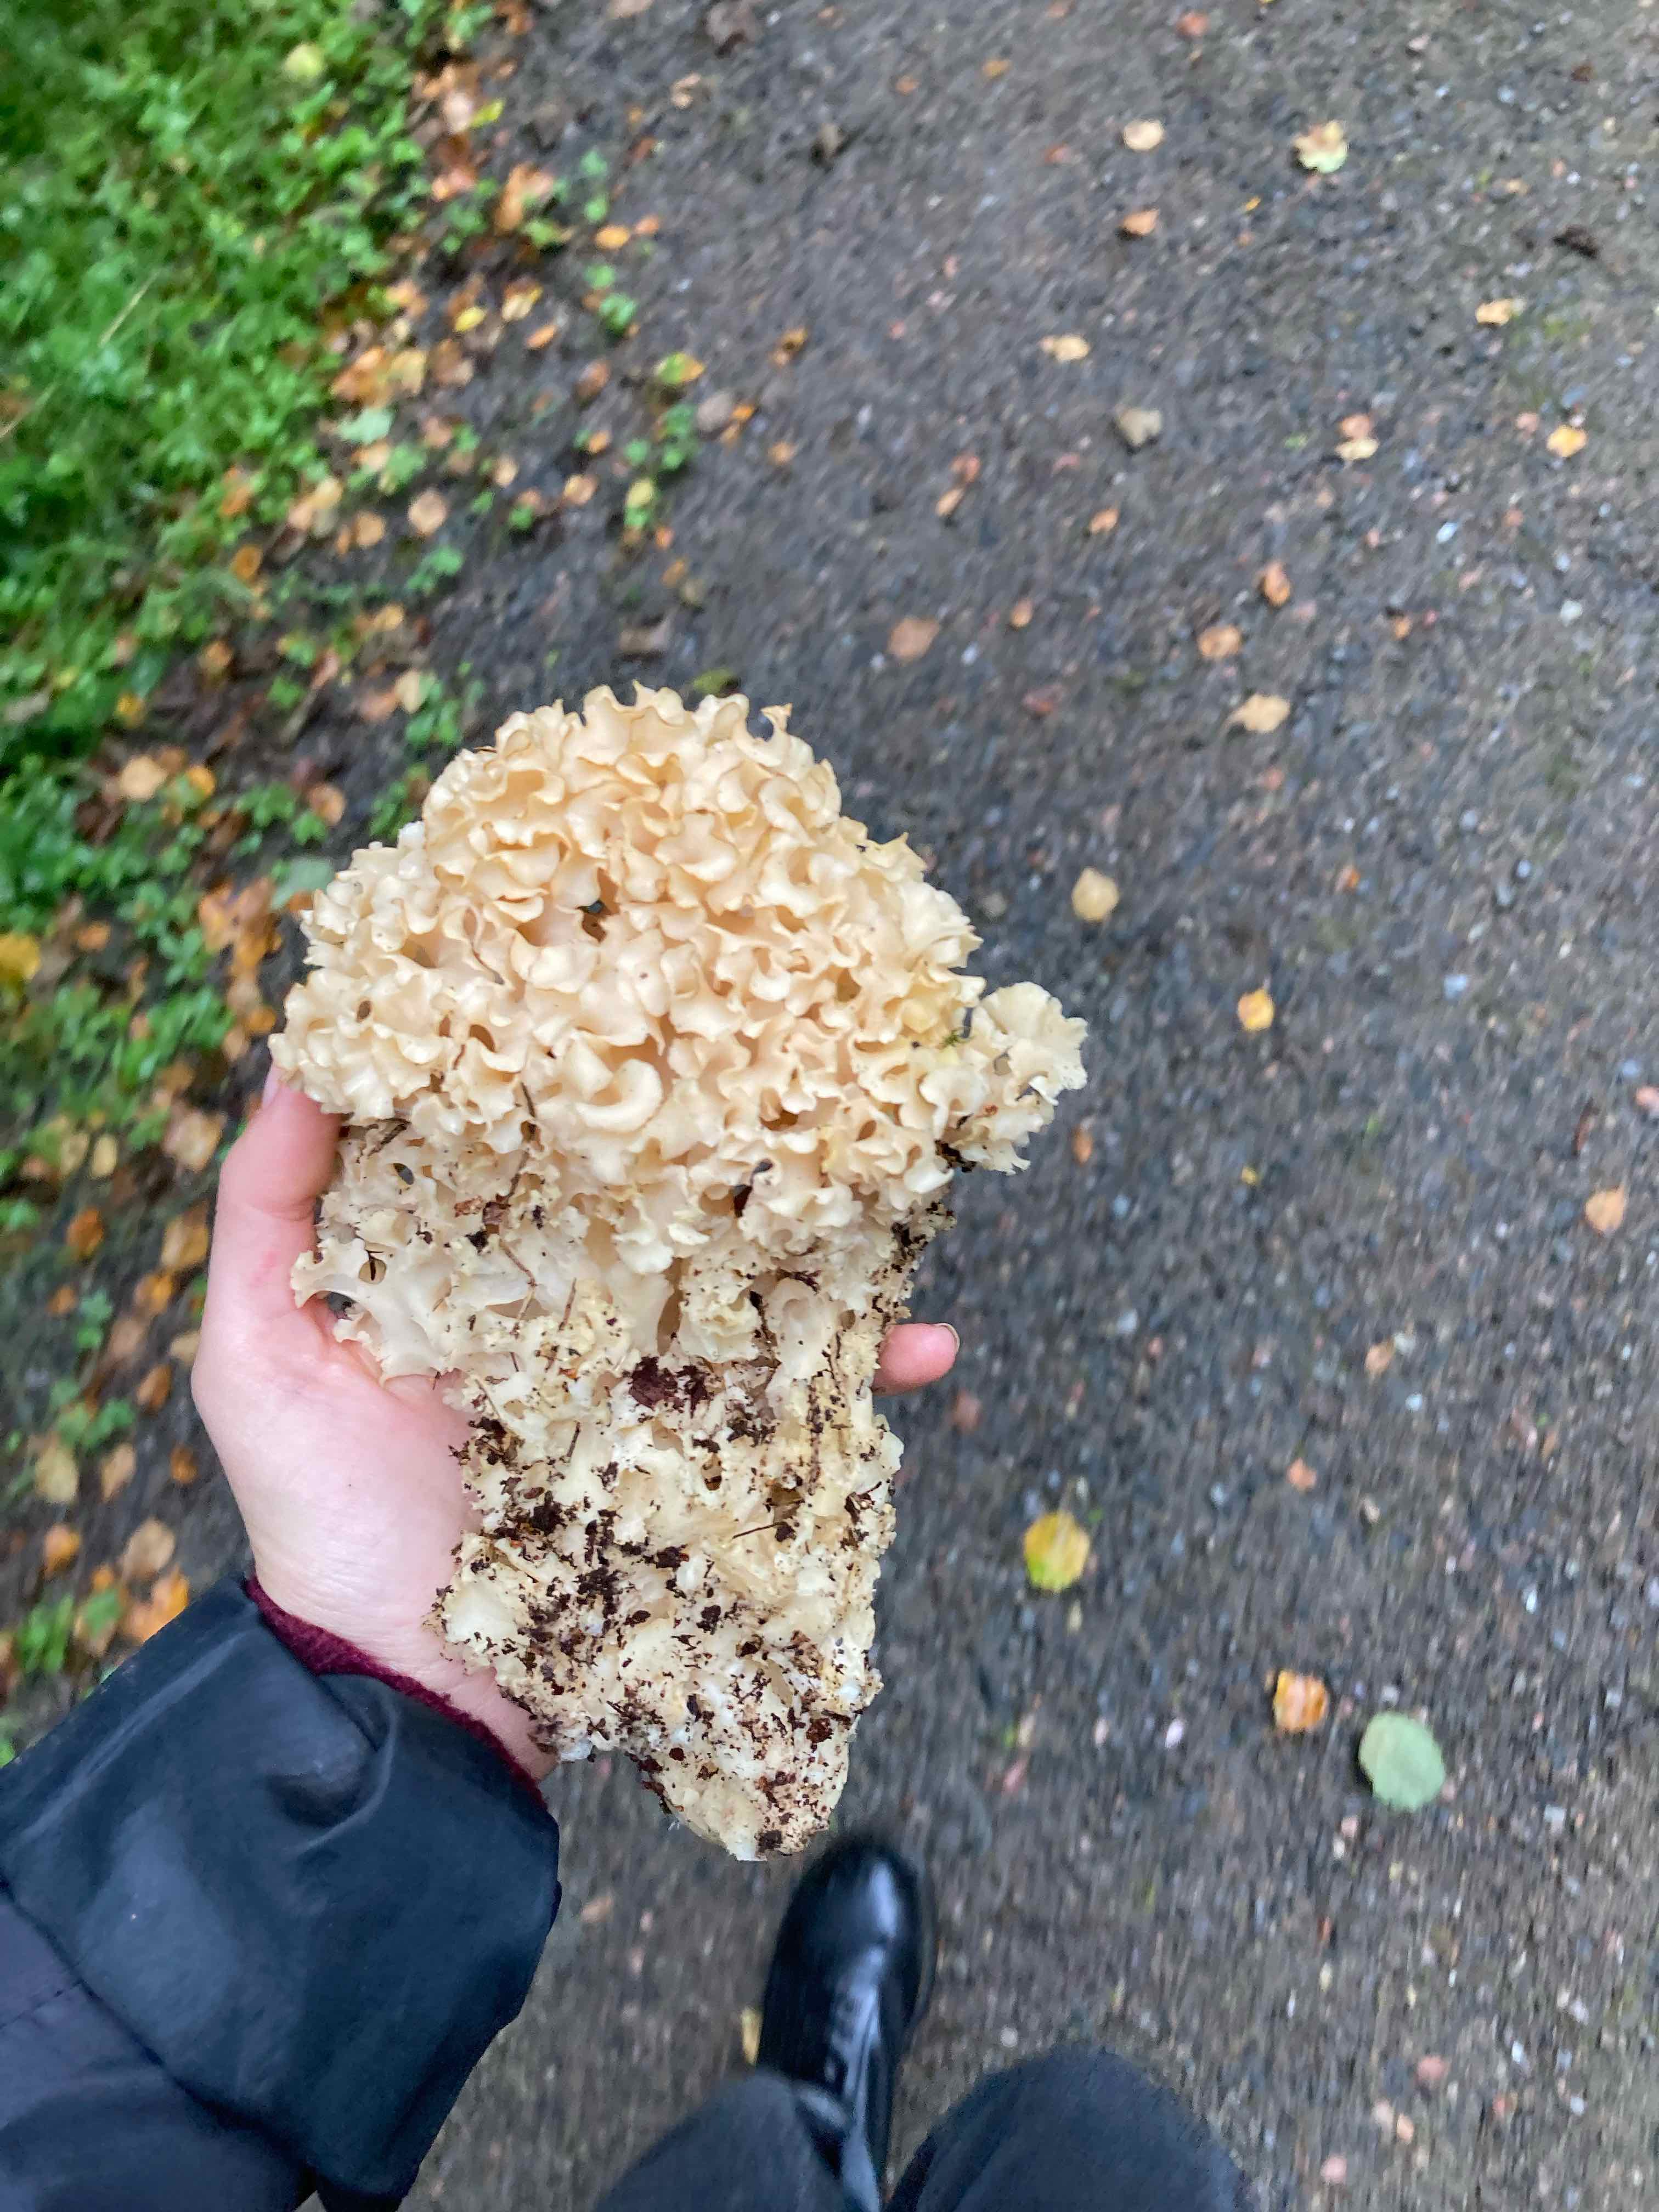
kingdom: Fungi
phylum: Basidiomycota
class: Agaricomycetes
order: Polyporales
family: Sparassidaceae
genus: Sparassis
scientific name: Sparassis crispa
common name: kruset blomkålssvamp
